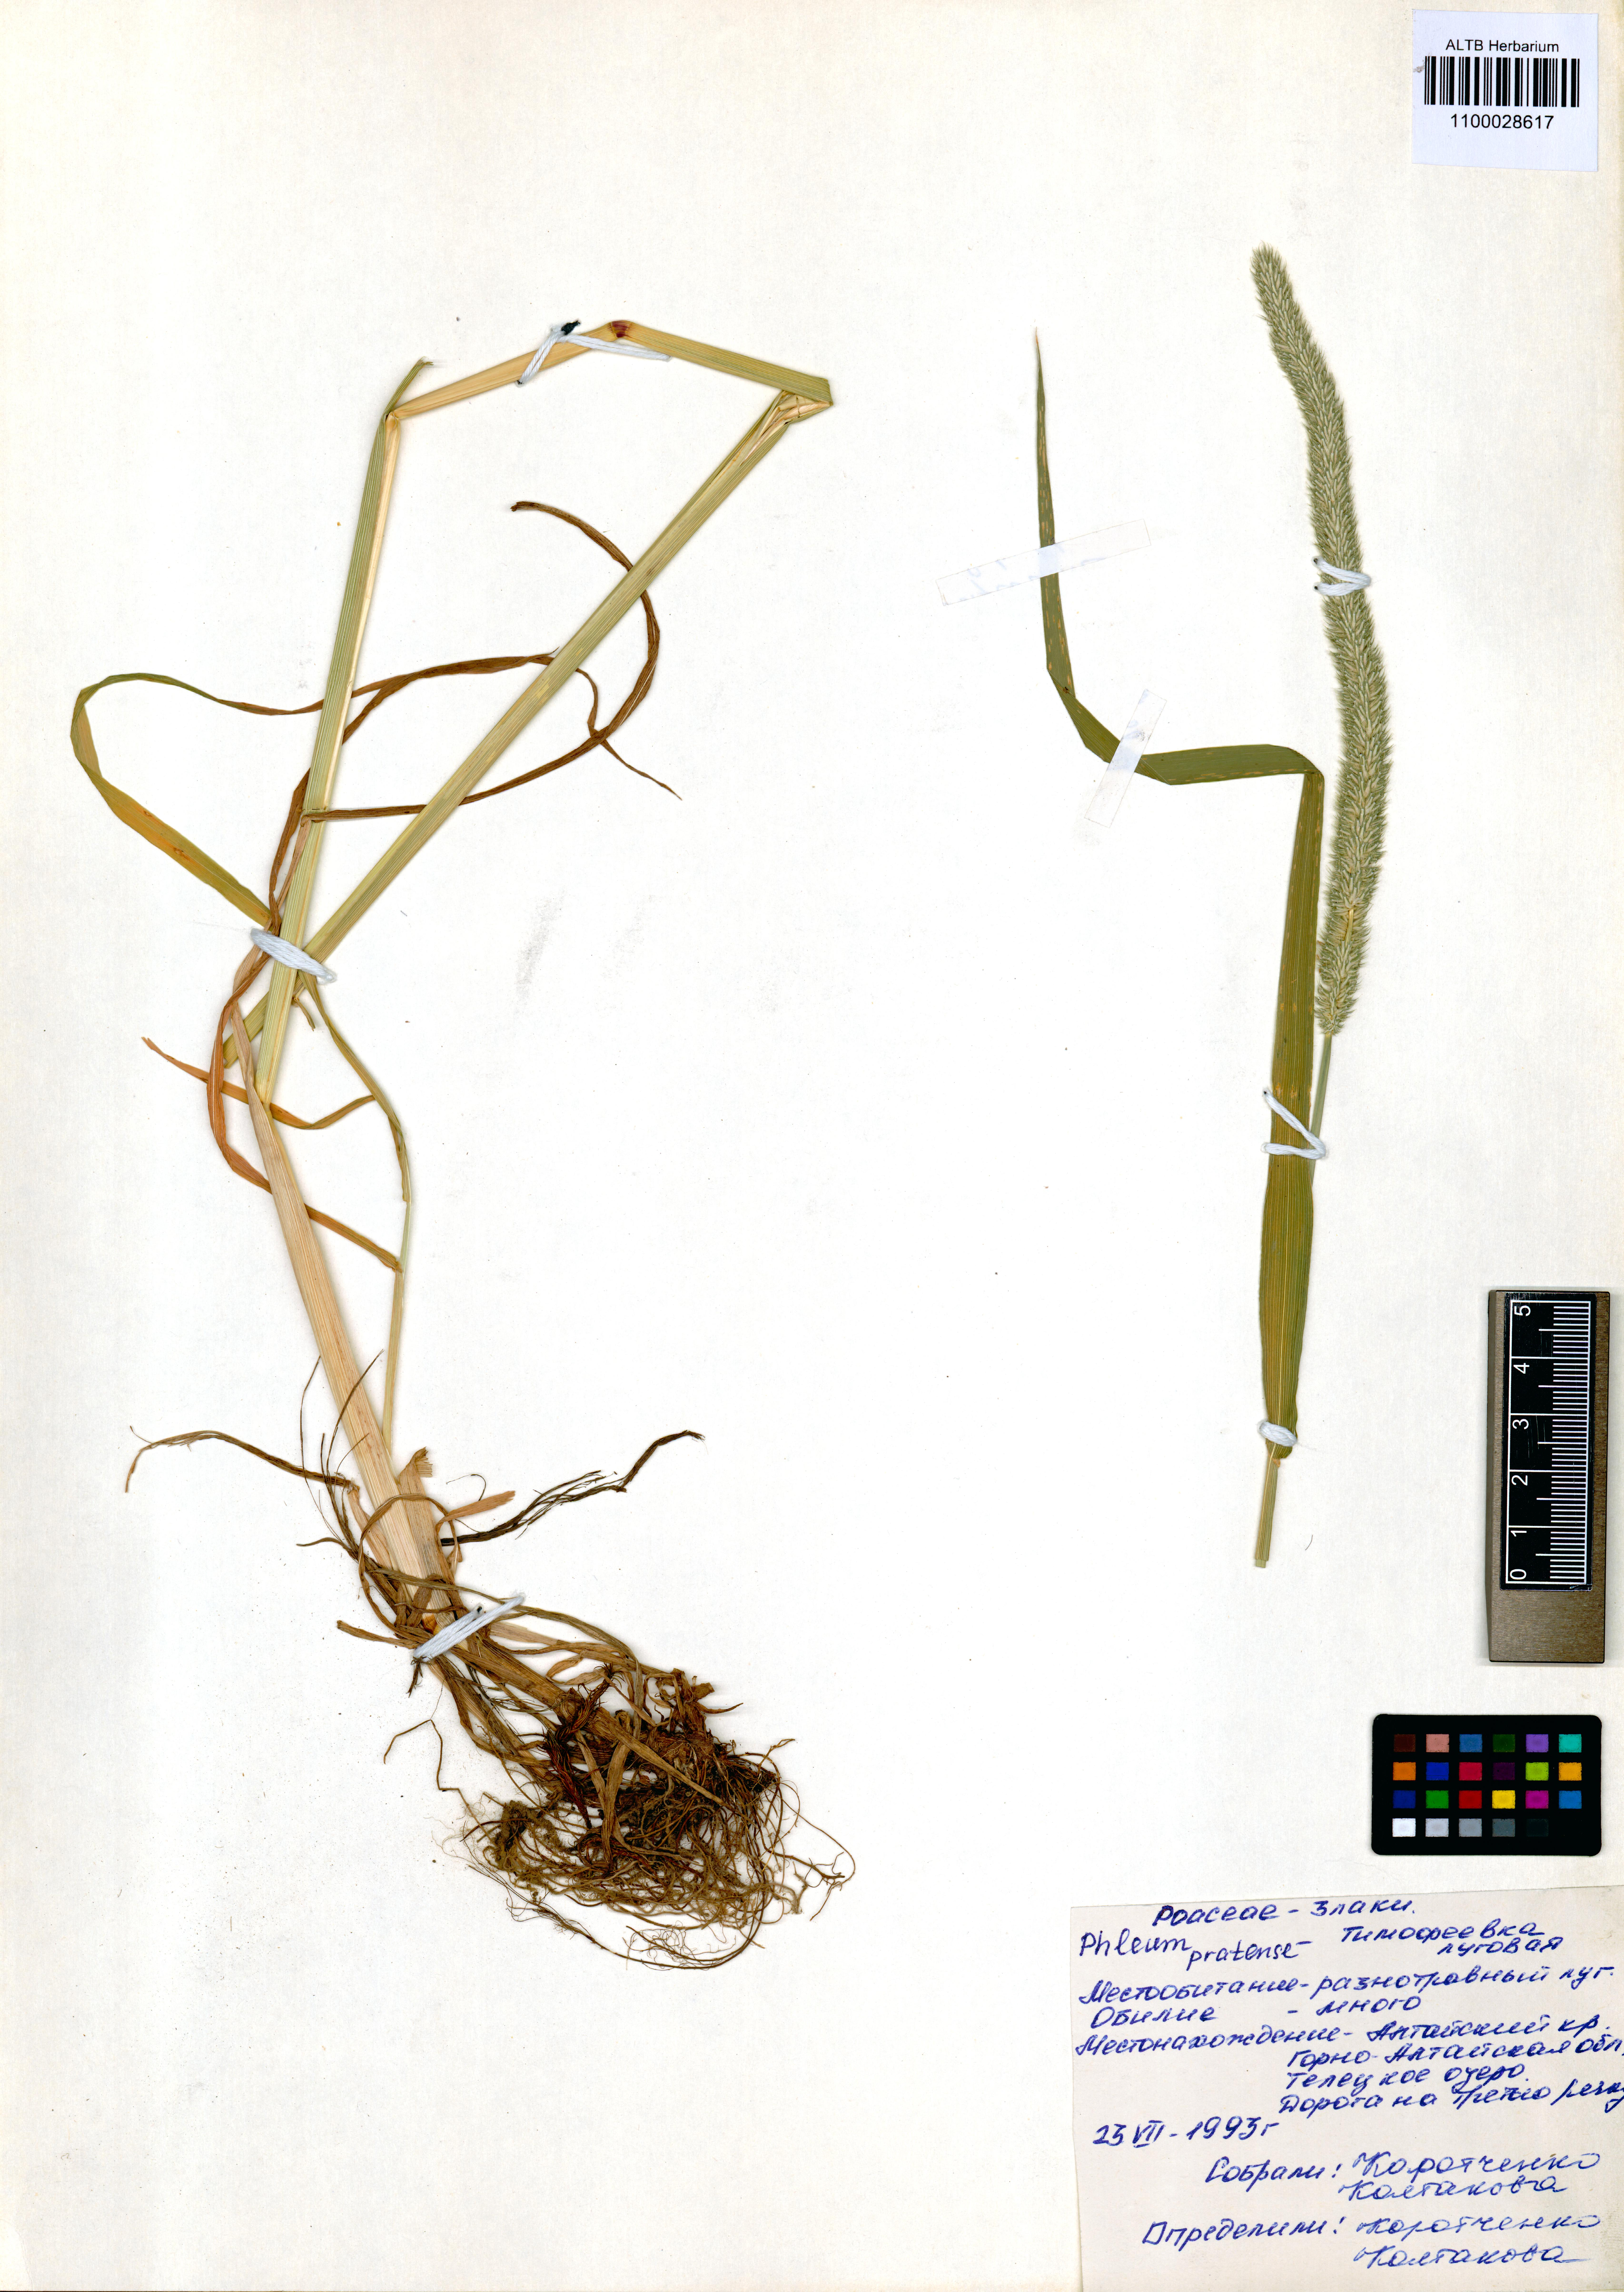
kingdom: Plantae
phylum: Tracheophyta
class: Liliopsida
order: Poales
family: Poaceae
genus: Phleum
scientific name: Phleum pratense
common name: Timothy grass
